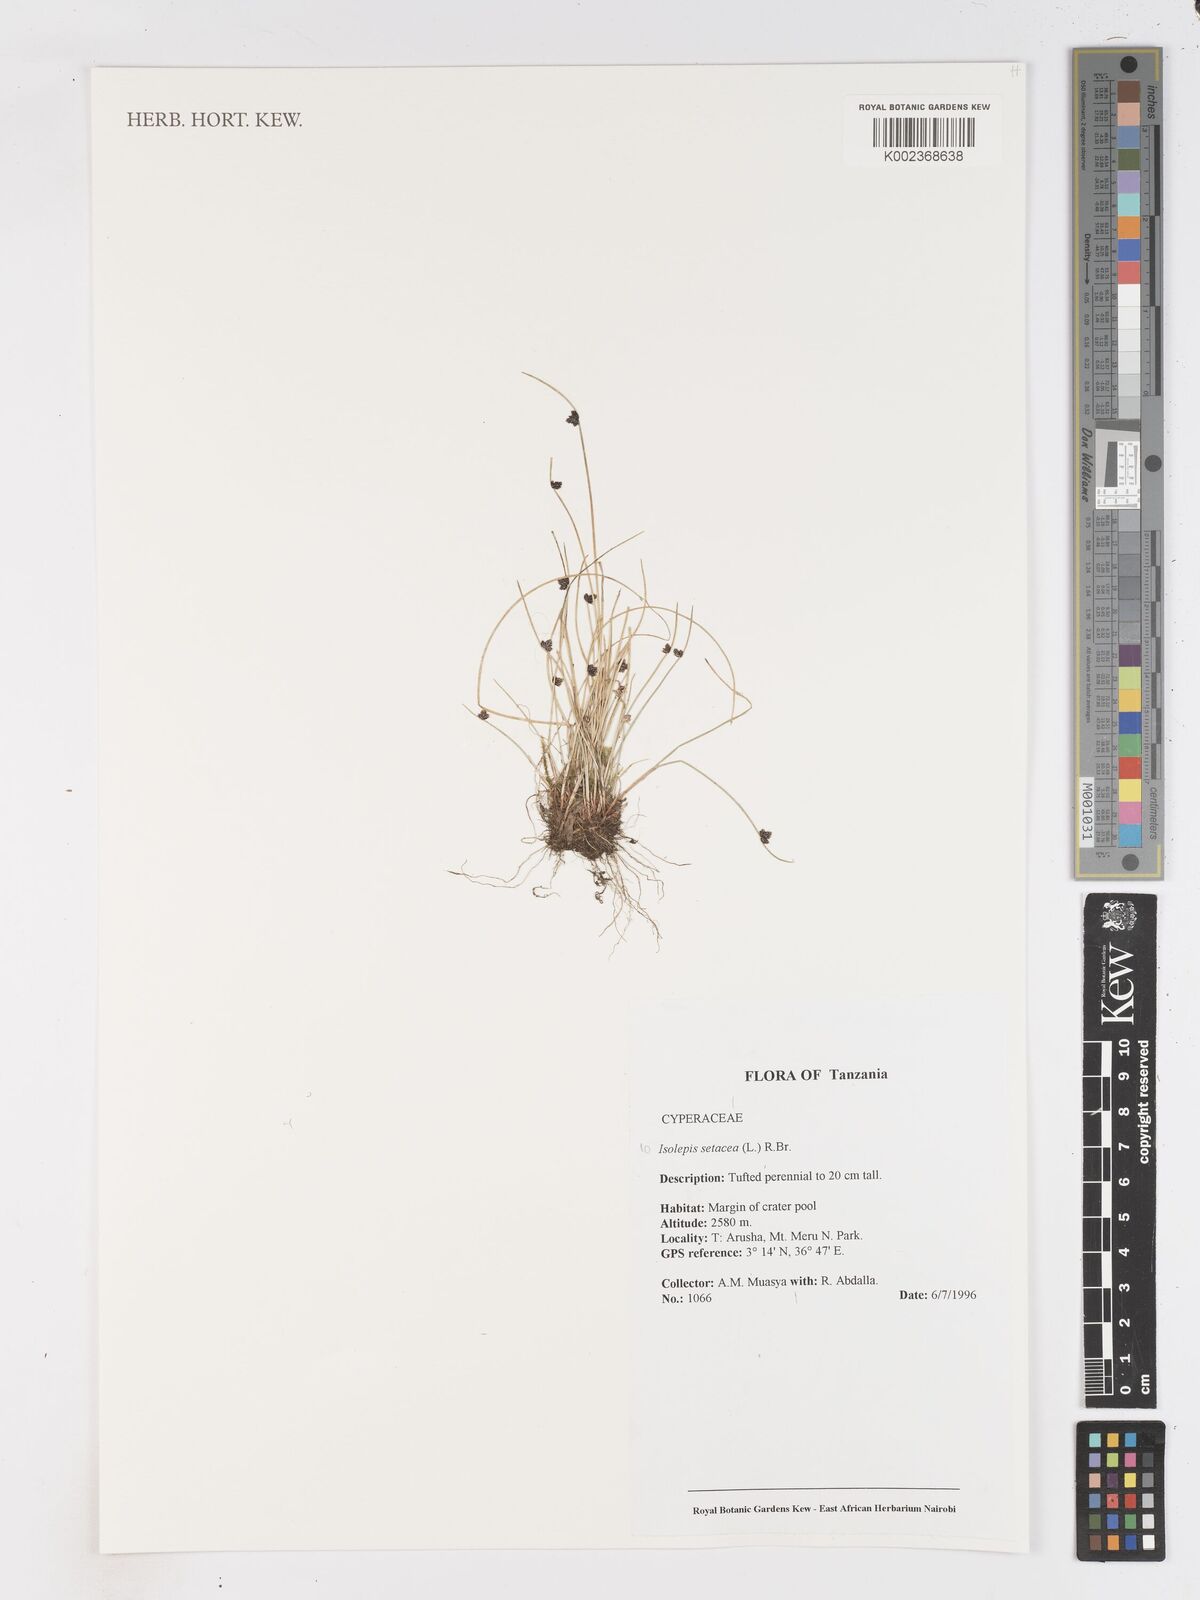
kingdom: Plantae
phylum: Tracheophyta
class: Liliopsida
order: Poales
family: Cyperaceae
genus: Isolepis
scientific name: Isolepis setacea
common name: Bristle club-rush
